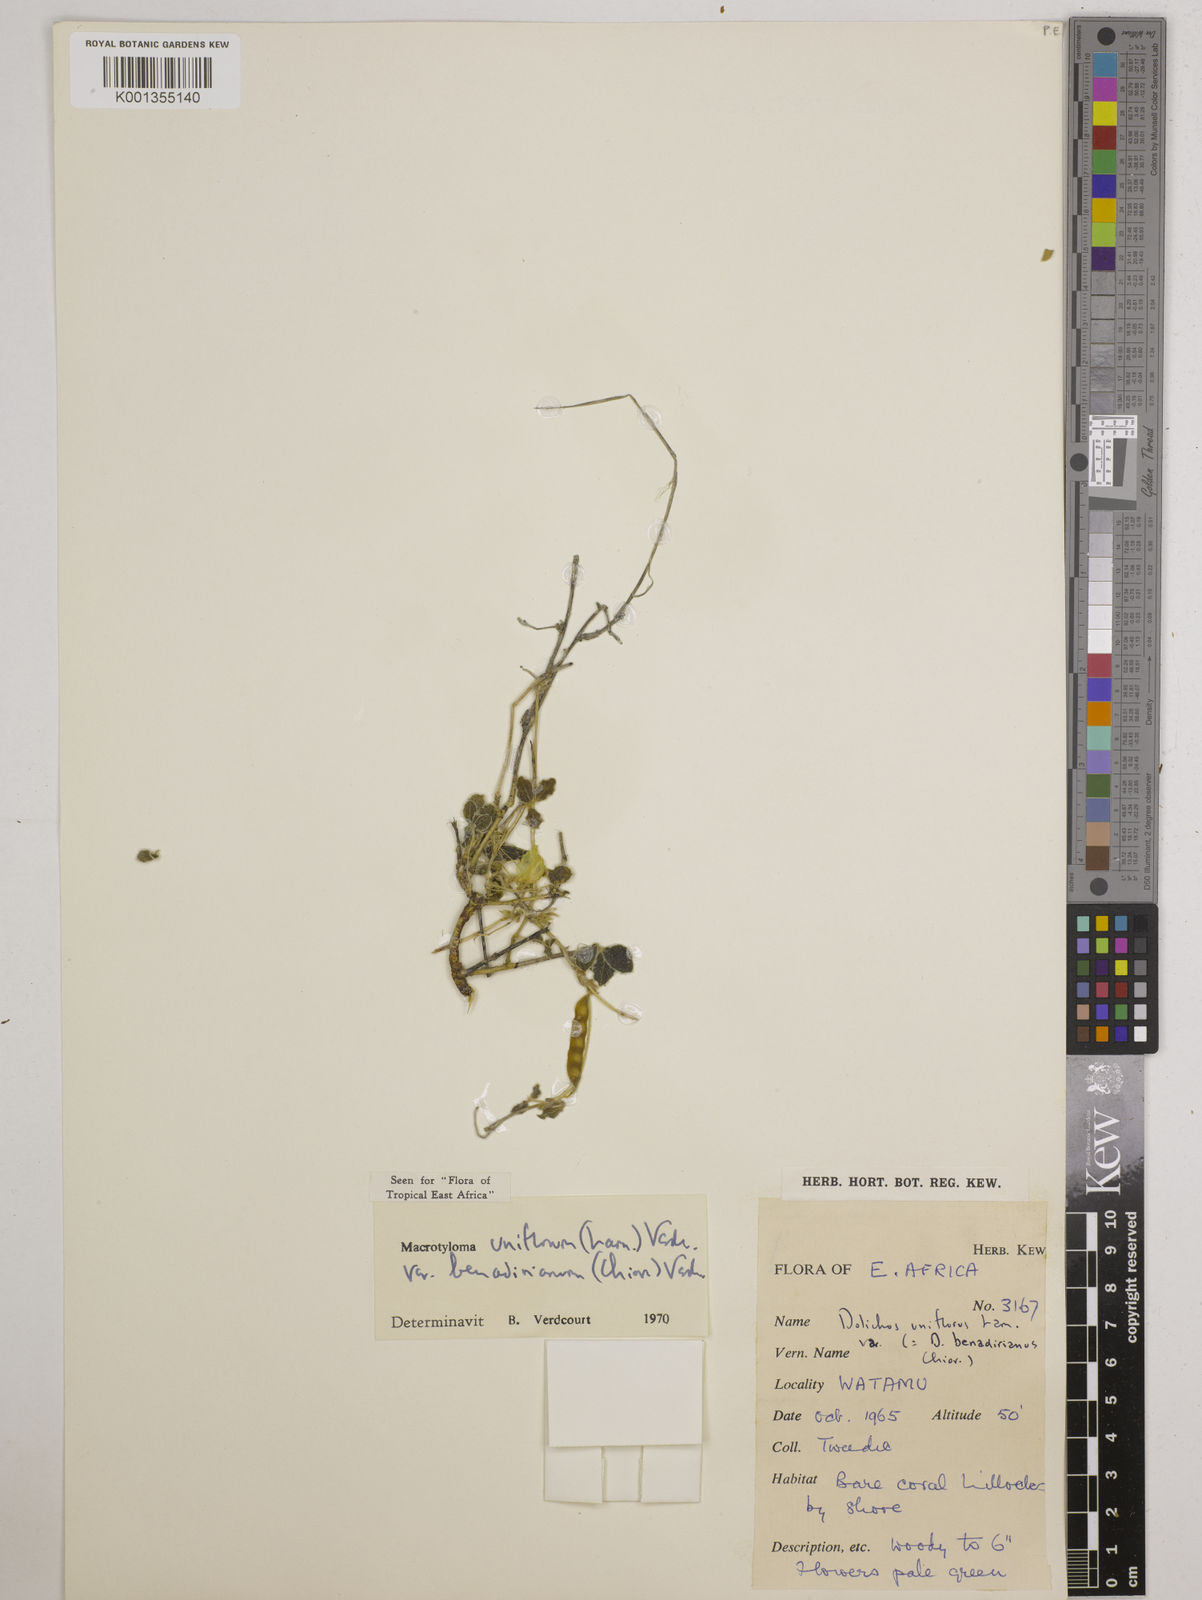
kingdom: Plantae
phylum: Tracheophyta
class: Magnoliopsida
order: Fabales
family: Fabaceae
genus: Macrotyloma
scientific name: Macrotyloma
